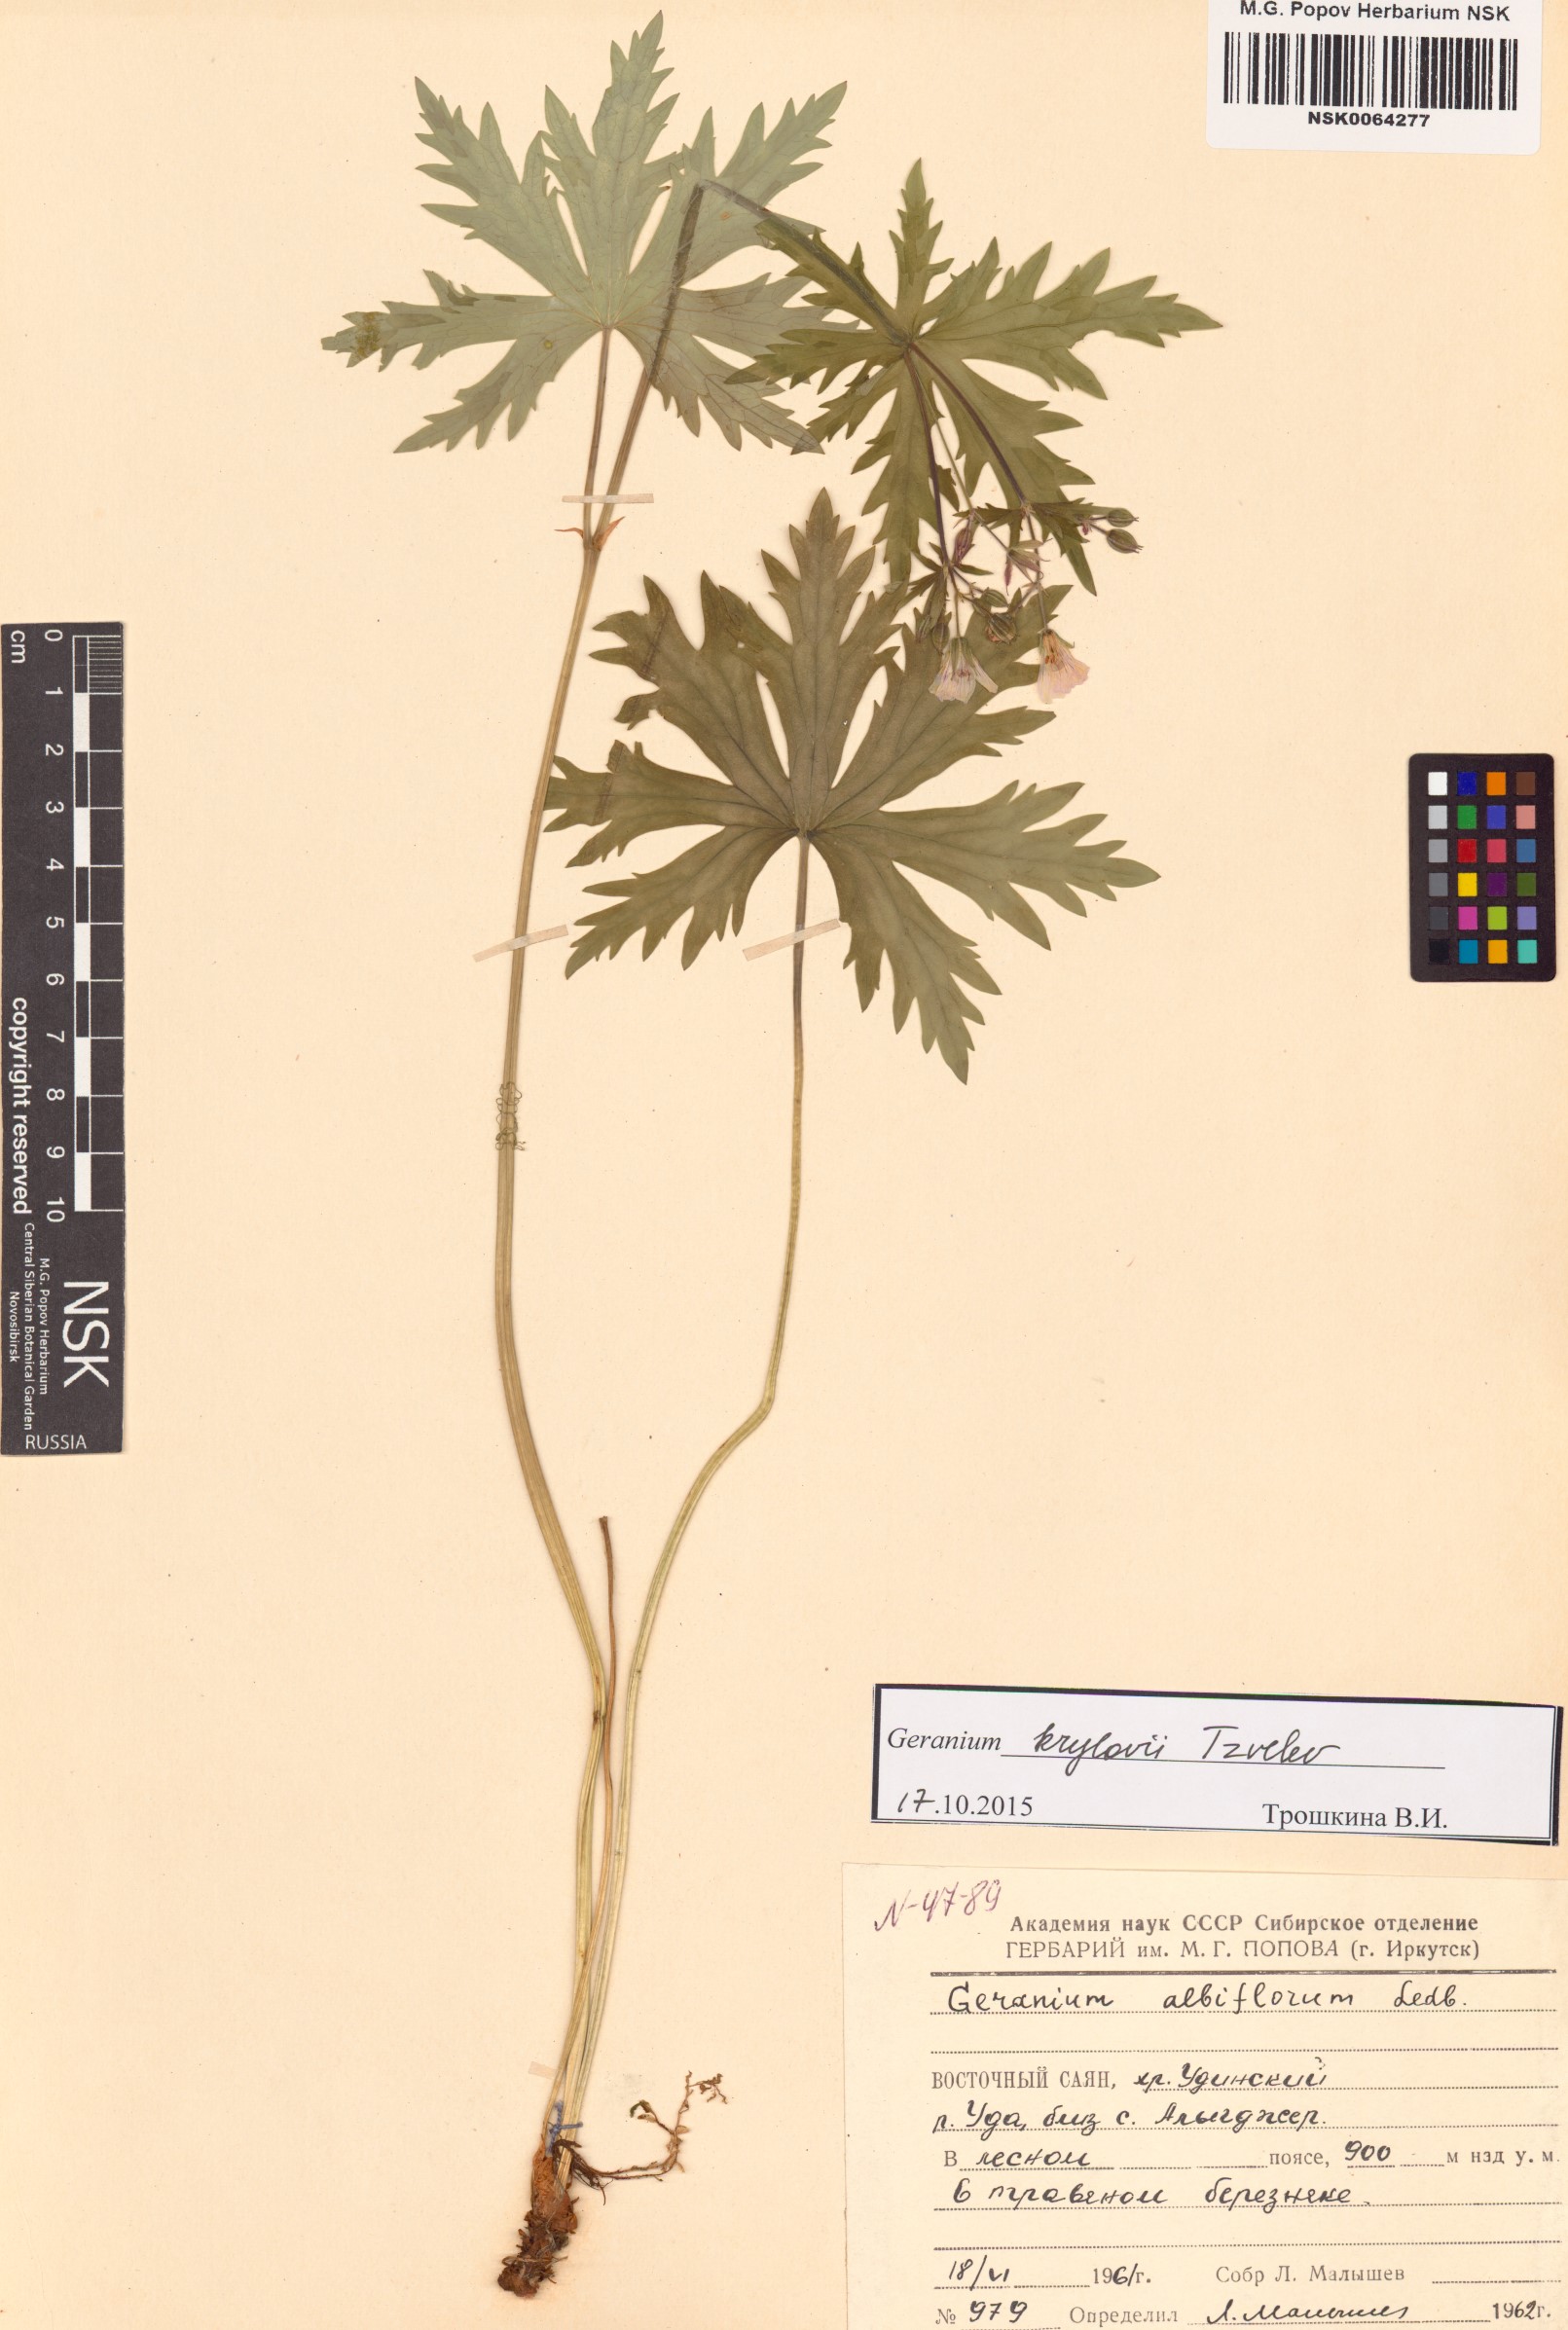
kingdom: Plantae
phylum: Tracheophyta
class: Magnoliopsida
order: Geraniales
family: Geraniaceae
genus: Geranium
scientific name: Geranium sylvaticum
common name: Wood crane's-bill
